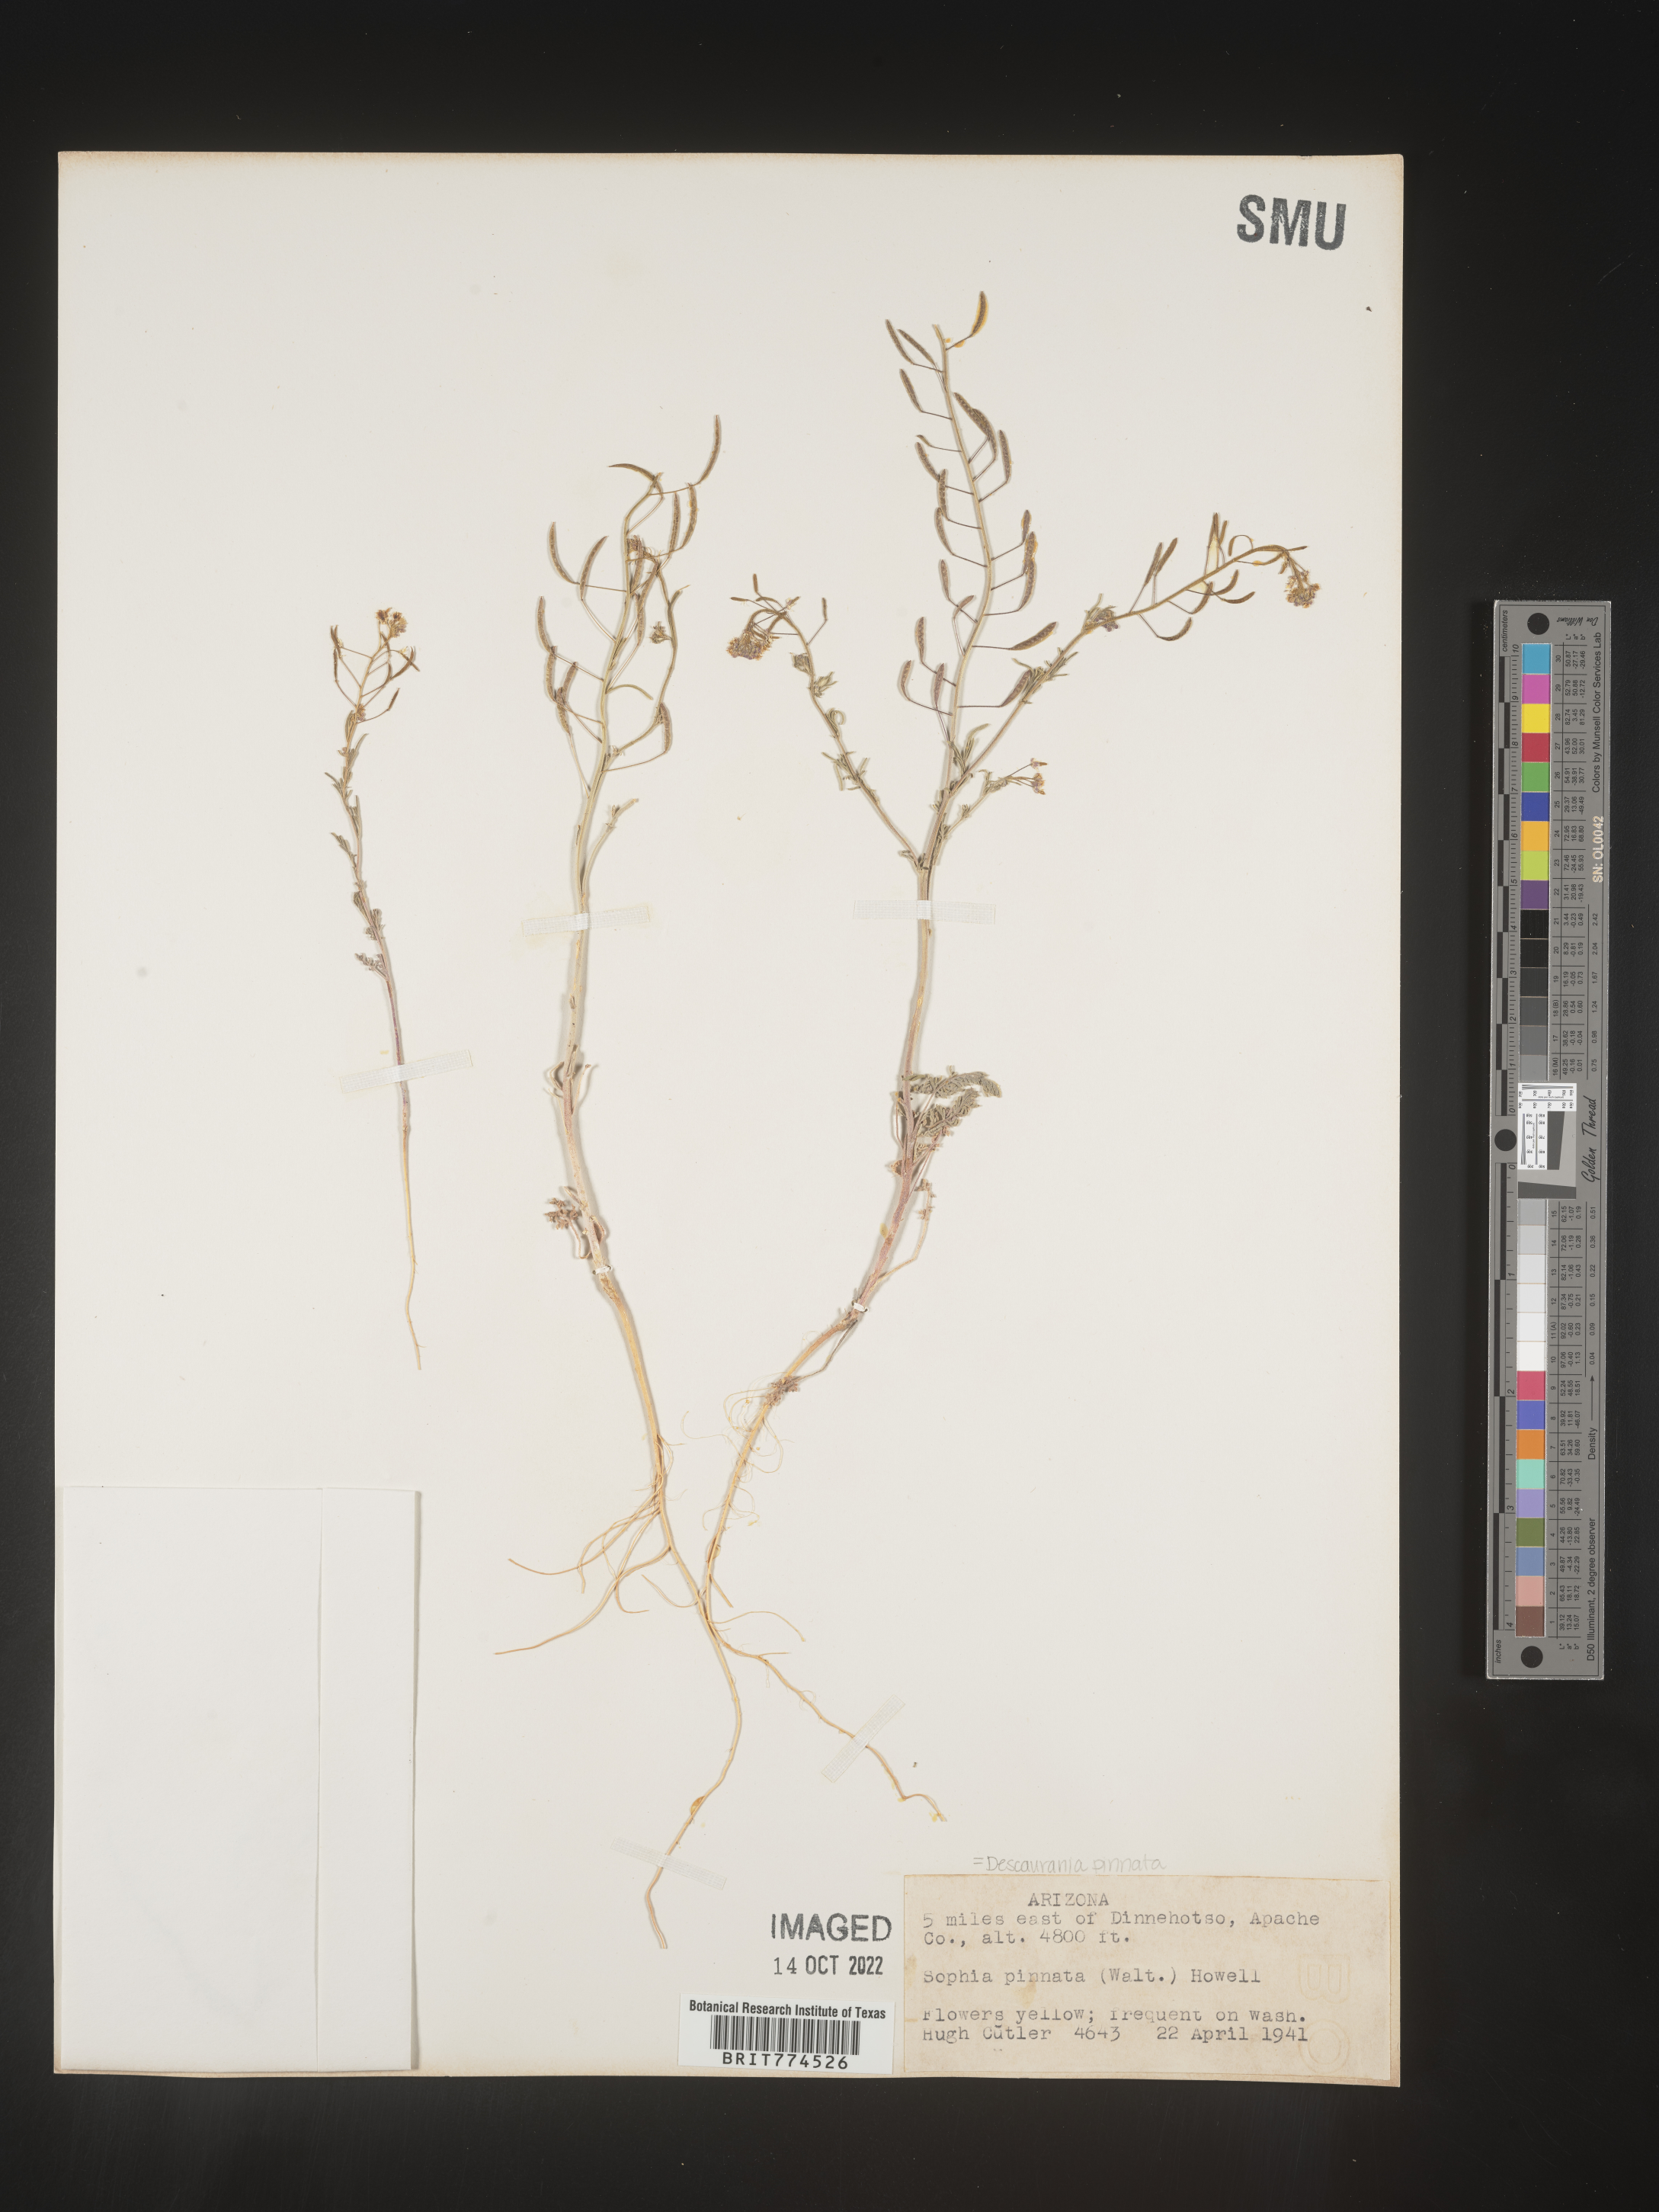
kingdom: Plantae
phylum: Tracheophyta
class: Magnoliopsida
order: Brassicales
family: Brassicaceae
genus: Descurainia
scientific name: Descurainia pinnata
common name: Western tansy mustard
